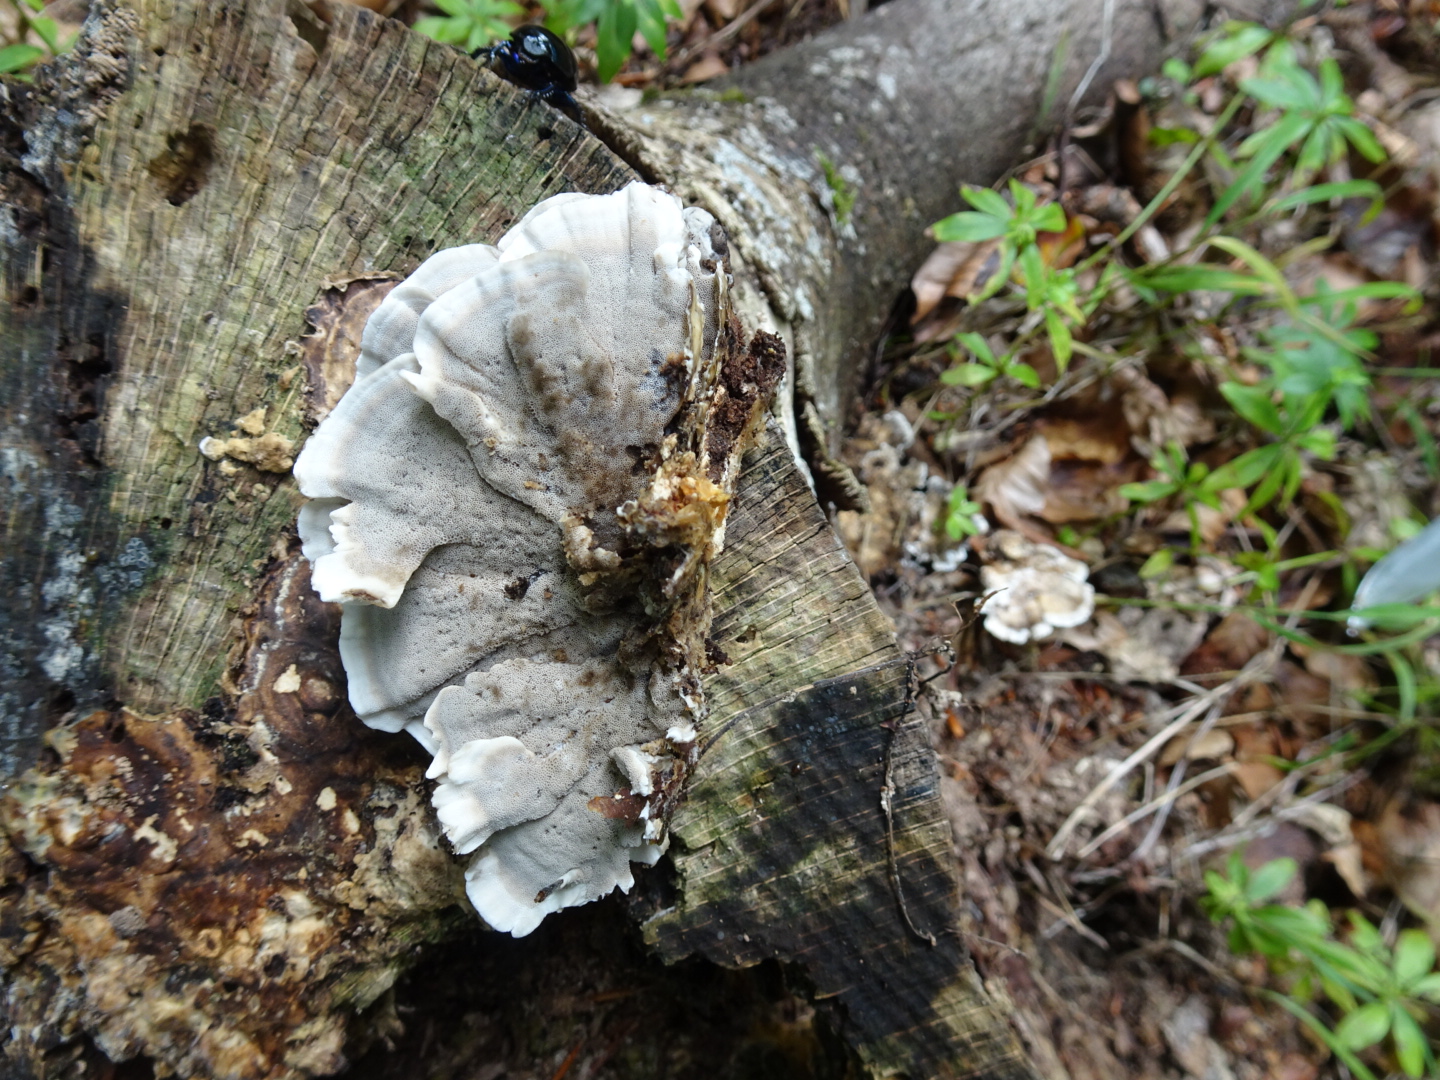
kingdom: Fungi
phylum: Basidiomycota
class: Agaricomycetes
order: Polyporales
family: Phanerochaetaceae
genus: Bjerkandera
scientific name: Bjerkandera adusta
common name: sveden sodporesvamp
